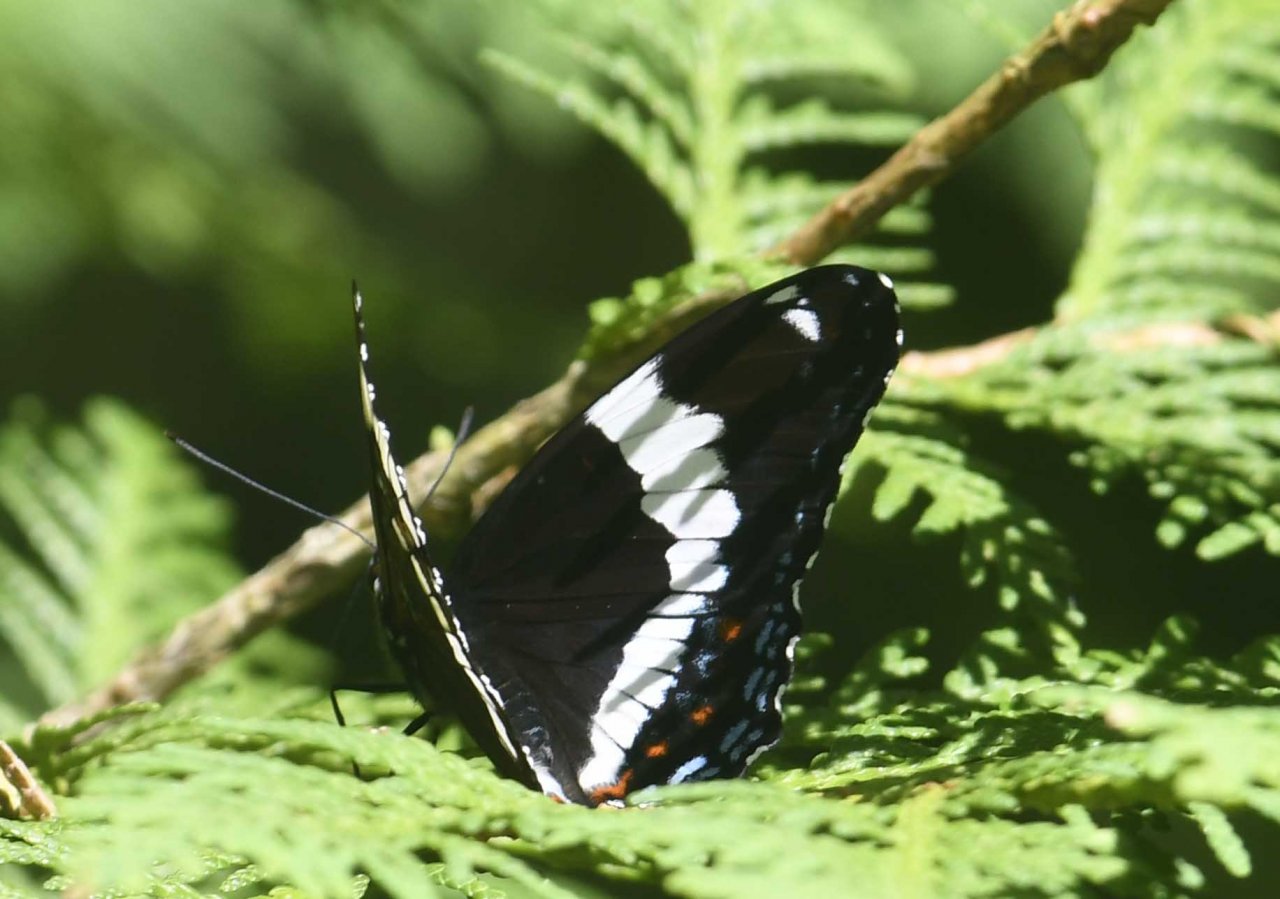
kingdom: Animalia
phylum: Arthropoda
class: Insecta
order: Lepidoptera
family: Nymphalidae
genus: Limenitis
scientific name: Limenitis arthemis
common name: Red-spotted Admiral
